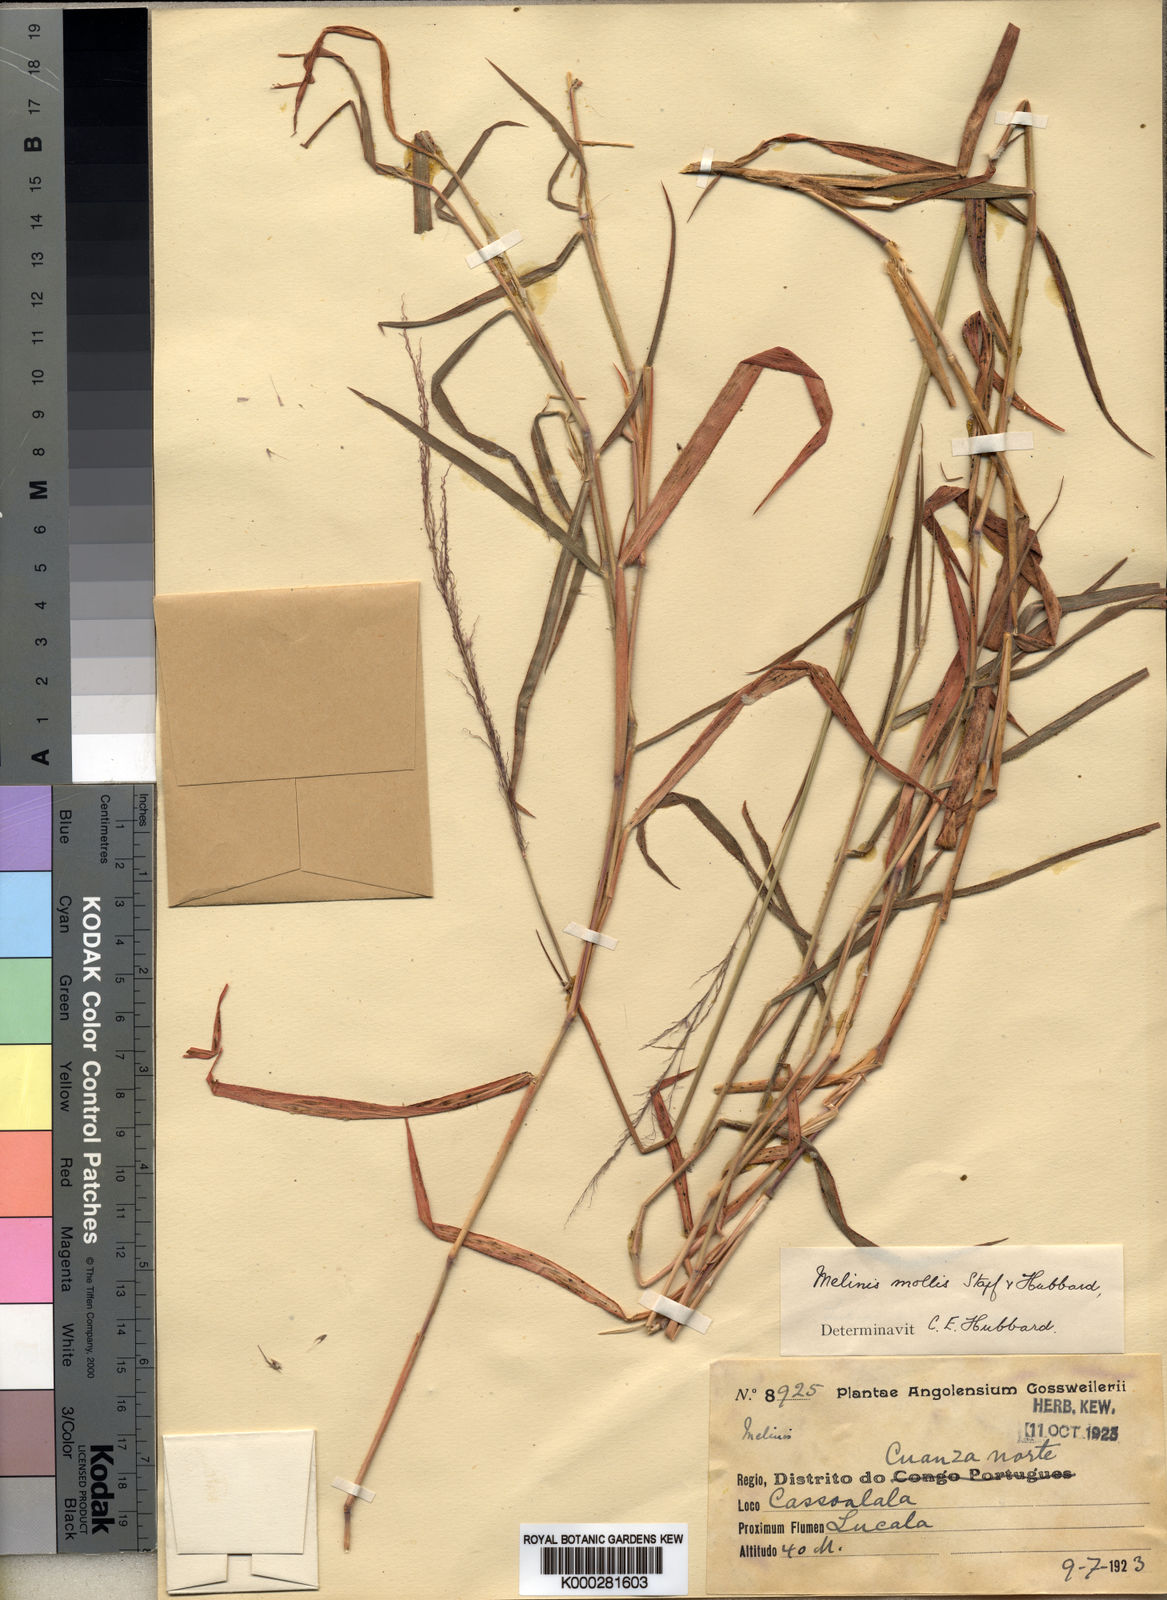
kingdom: Plantae
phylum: Tracheophyta
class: Liliopsida
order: Poales
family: Poaceae
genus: Melinis
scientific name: Melinis ambigua
